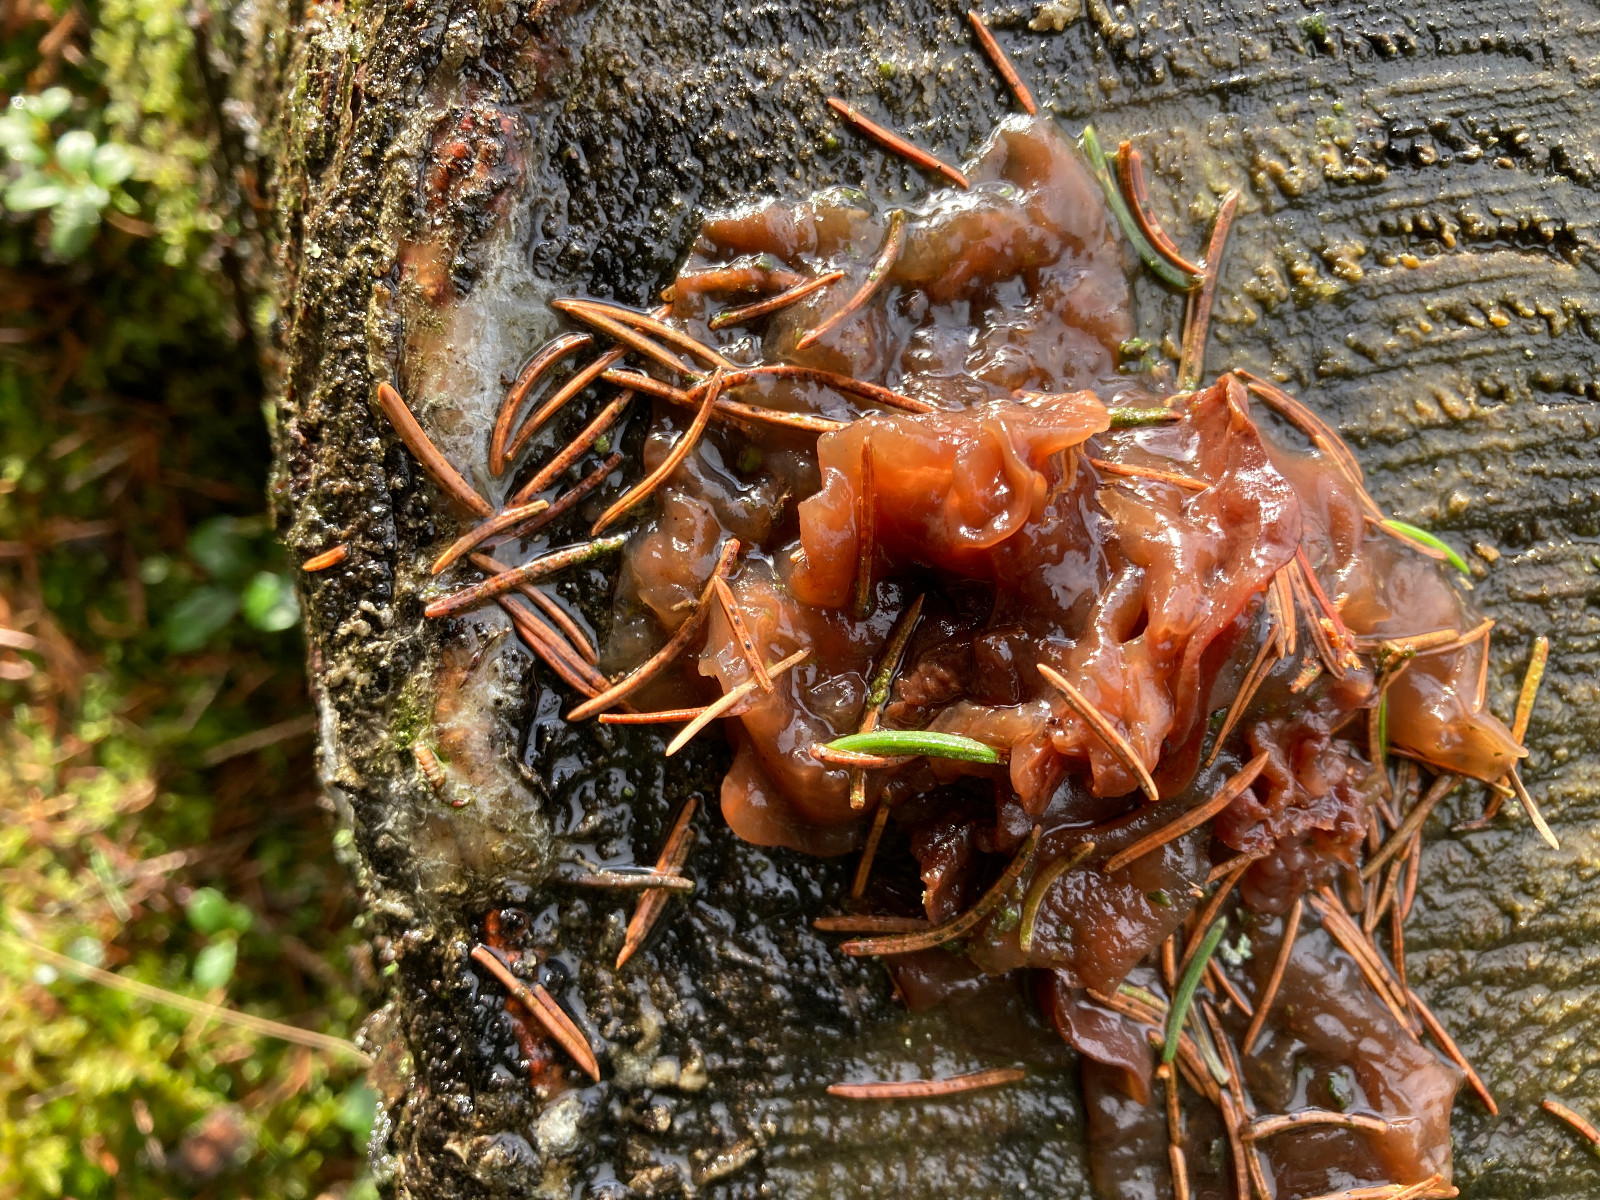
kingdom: Fungi
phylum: Basidiomycota
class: Tremellomycetes
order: Tremellales
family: Tremellaceae
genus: Phaeotremella
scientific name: Phaeotremella foliacea
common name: brun bævresvamp
